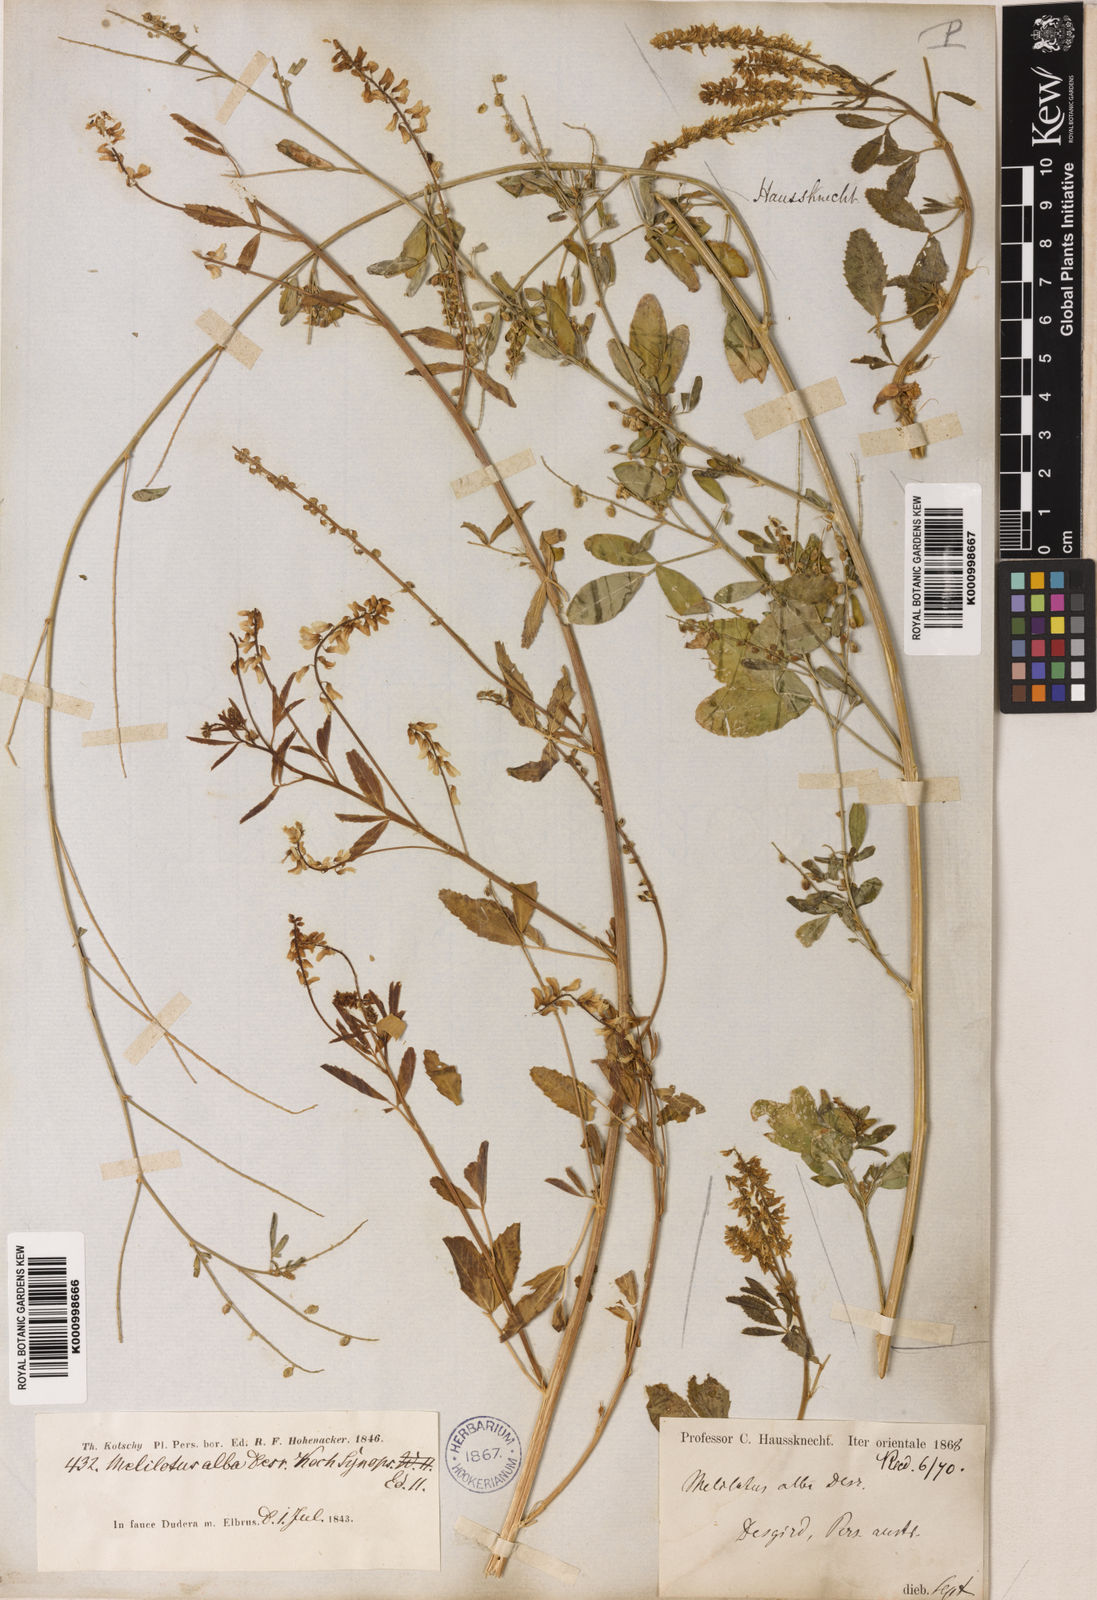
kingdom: Plantae
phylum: Tracheophyta
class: Magnoliopsida
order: Fabales
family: Fabaceae
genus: Melilotus
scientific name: Melilotus albus
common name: White melilot
